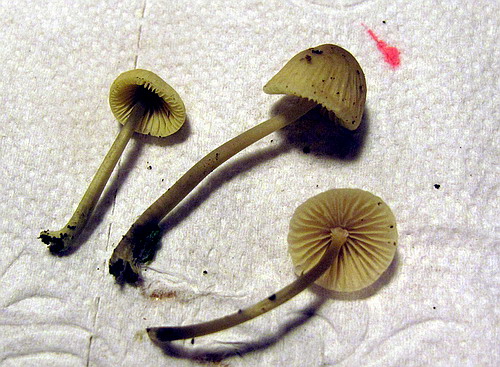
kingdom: Fungi
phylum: Basidiomycota
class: Agaricomycetes
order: Agaricales
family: Mycenaceae
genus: Mycena
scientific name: Mycena arcangeliana
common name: oliven-huesvamp
